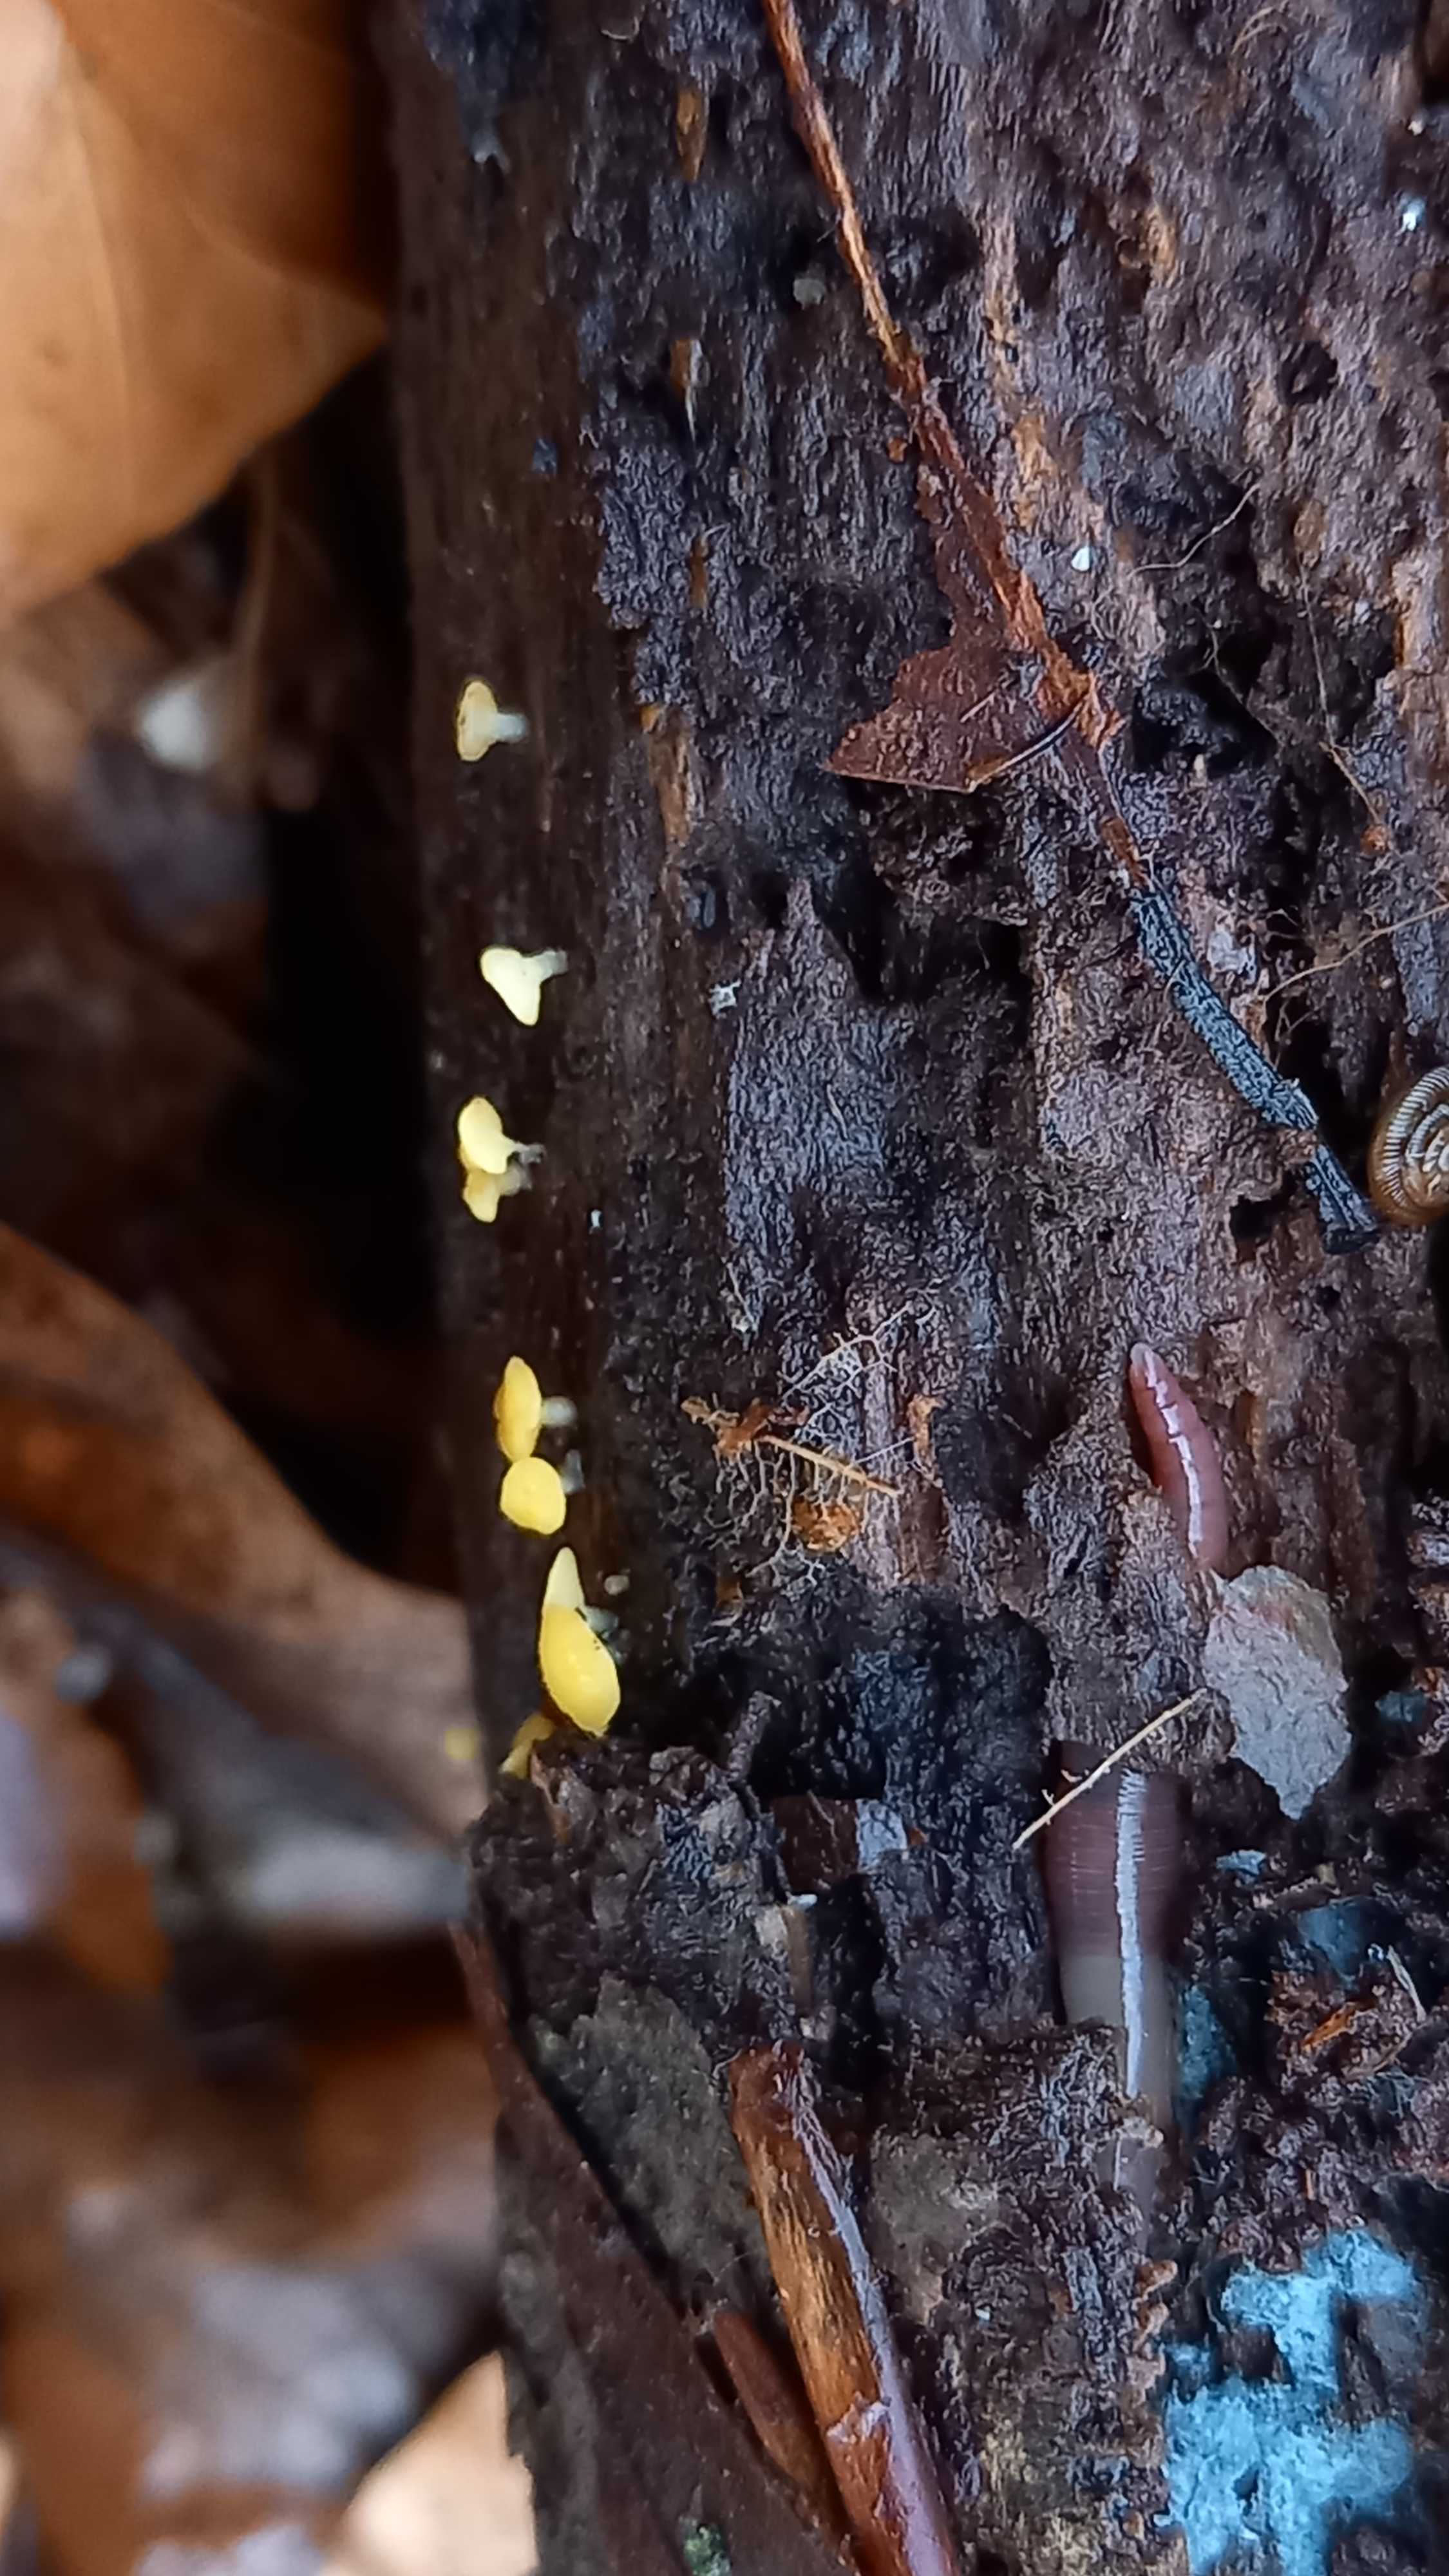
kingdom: Fungi
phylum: Ascomycota
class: Leotiomycetes
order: Helotiales
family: Pezizellaceae
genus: Calycina
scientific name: Calycina citrina
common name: almindelig gulskive
